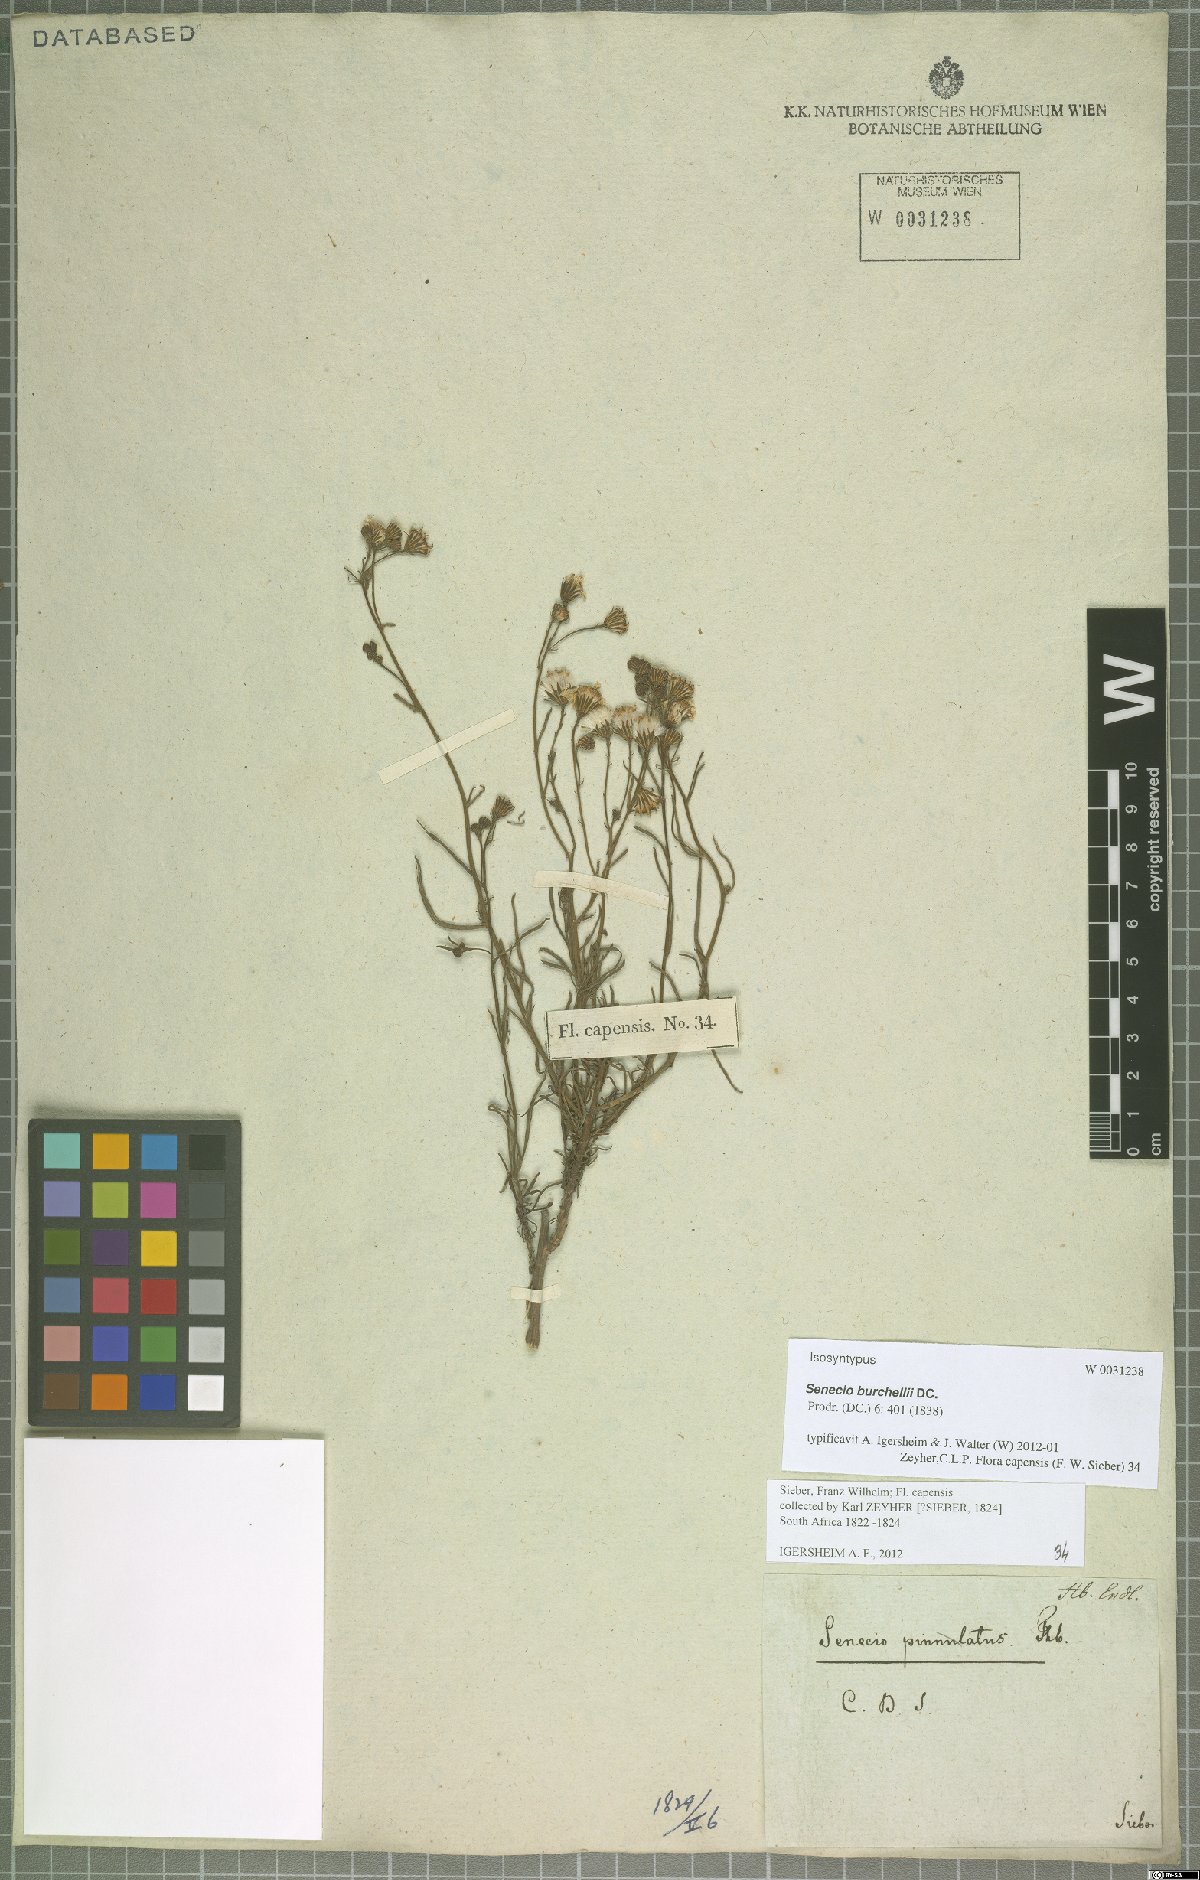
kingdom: Plantae
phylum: Tracheophyta
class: Magnoliopsida
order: Asterales
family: Asteraceae
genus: Senecio
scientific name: Senecio burchellii
